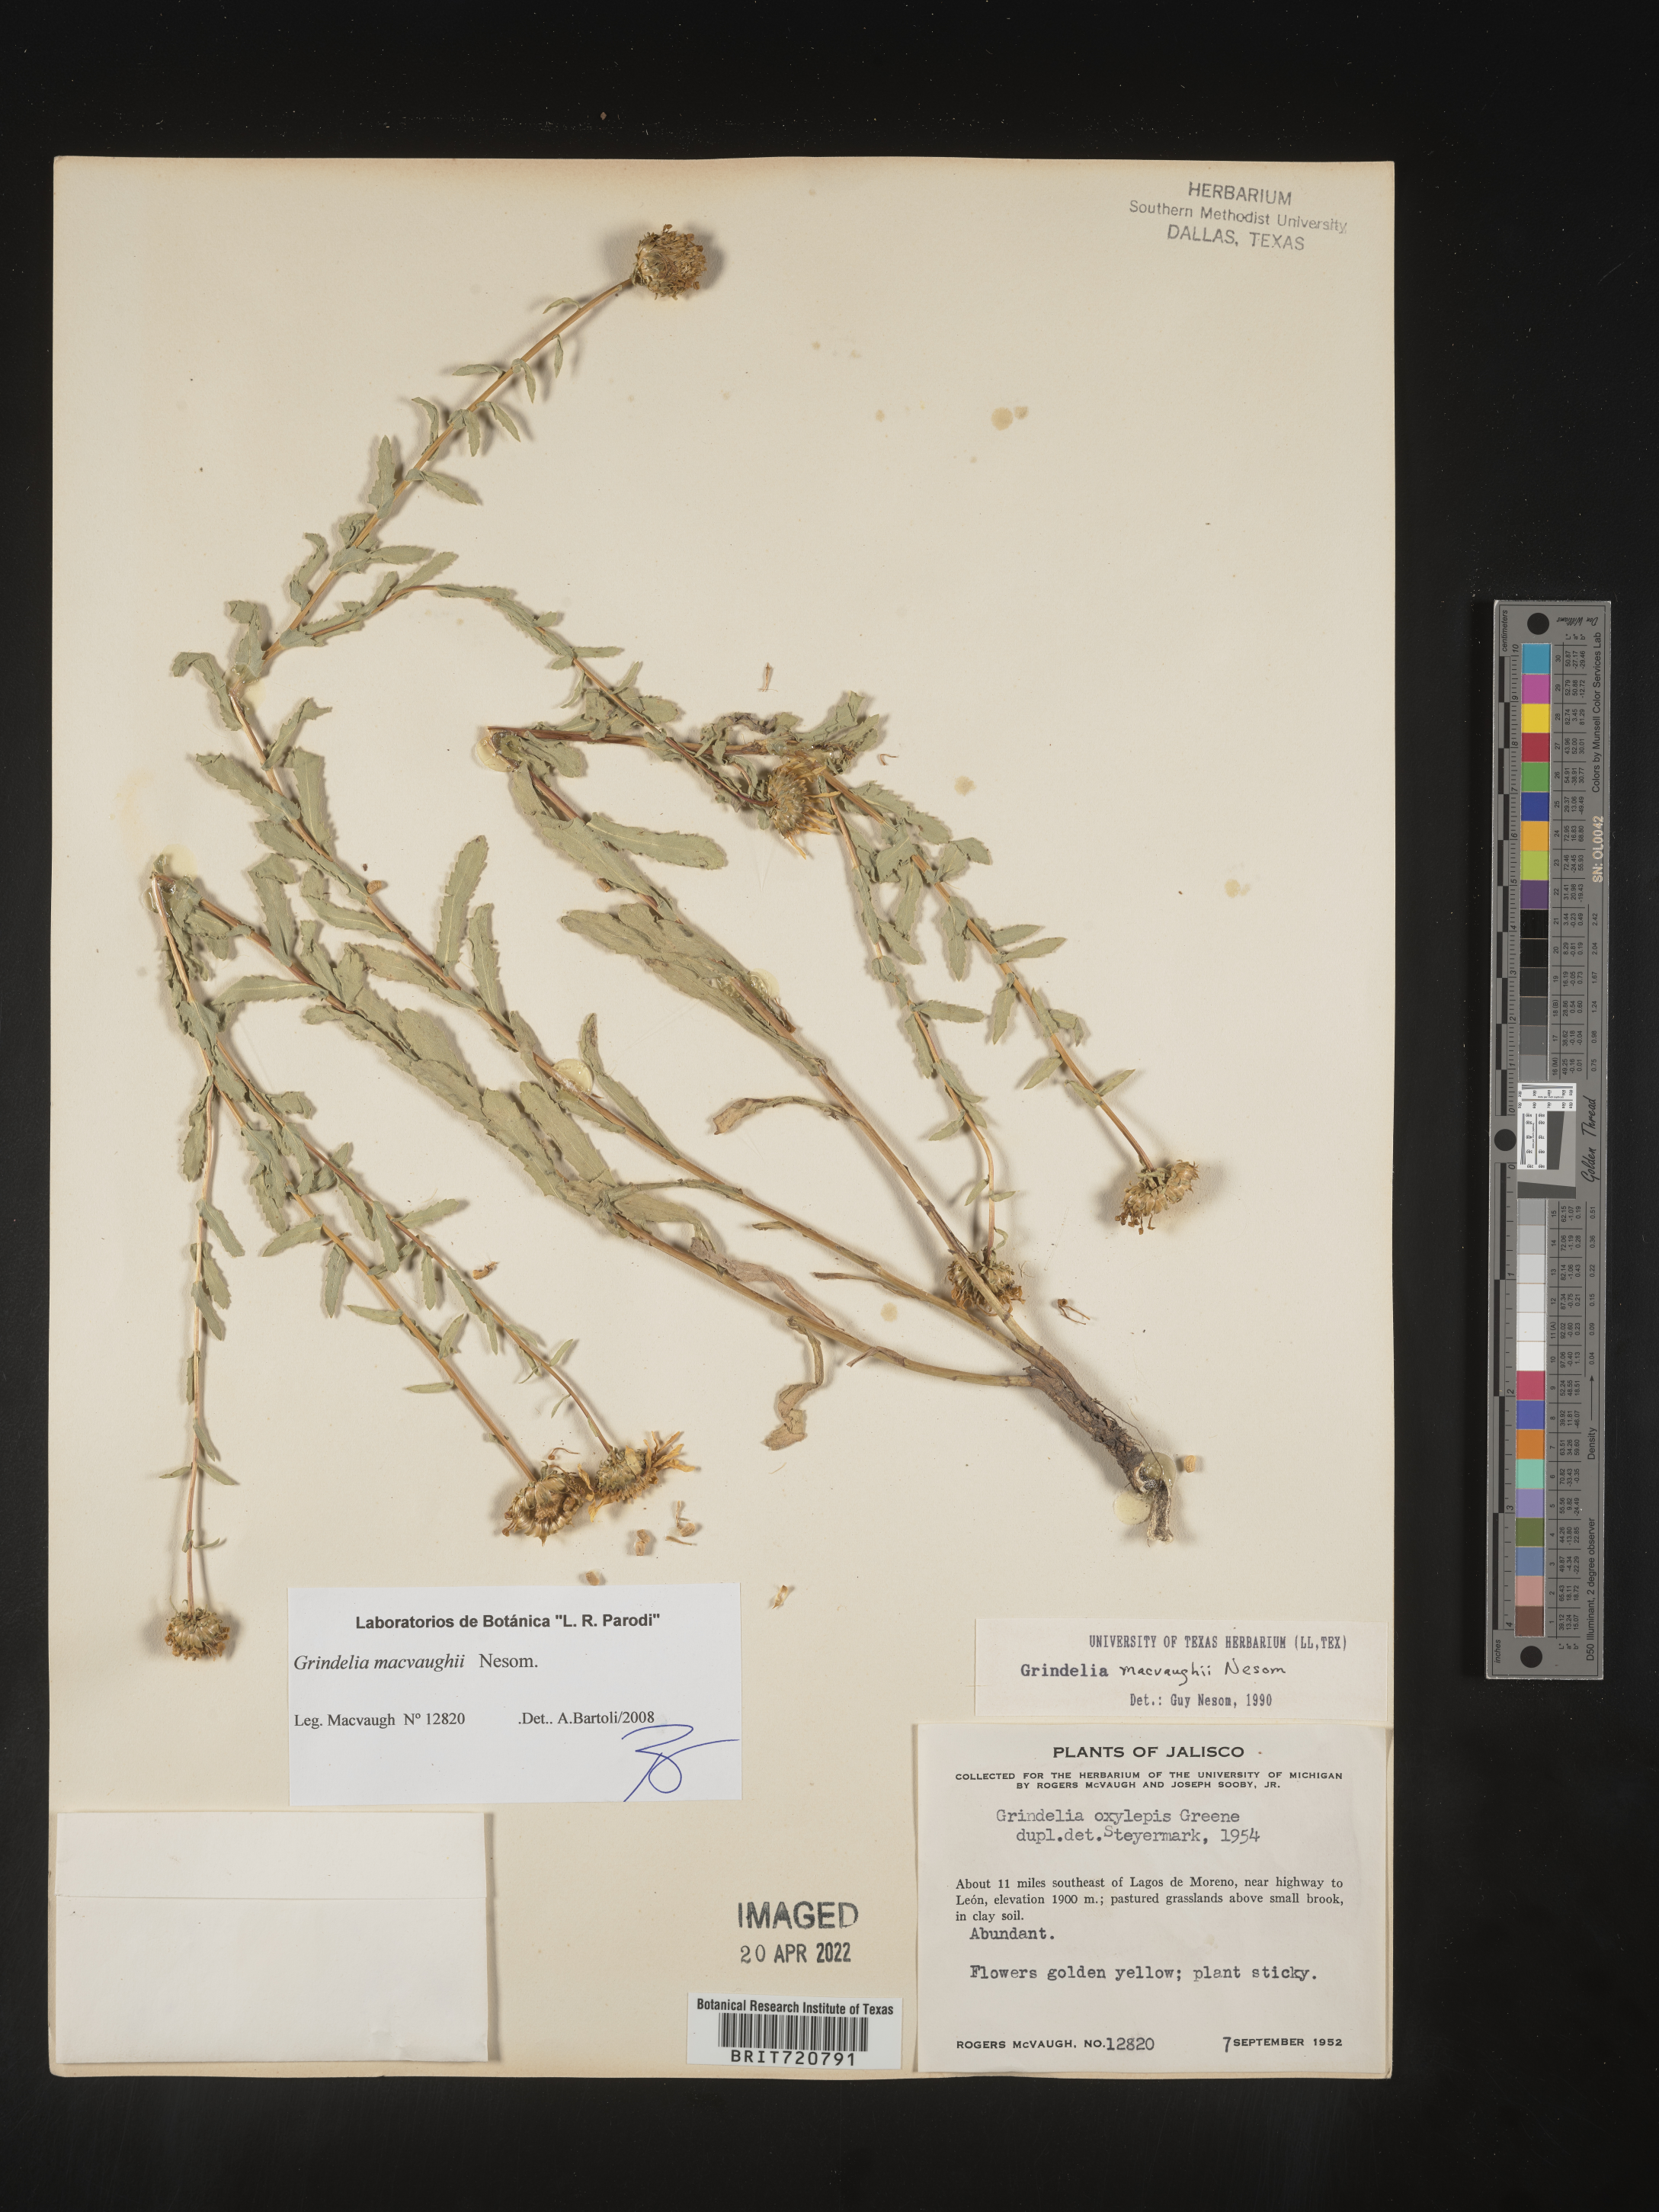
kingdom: Plantae
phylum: Tracheophyta
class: Magnoliopsida
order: Asterales
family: Asteraceae
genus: Grindelia
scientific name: Grindelia
